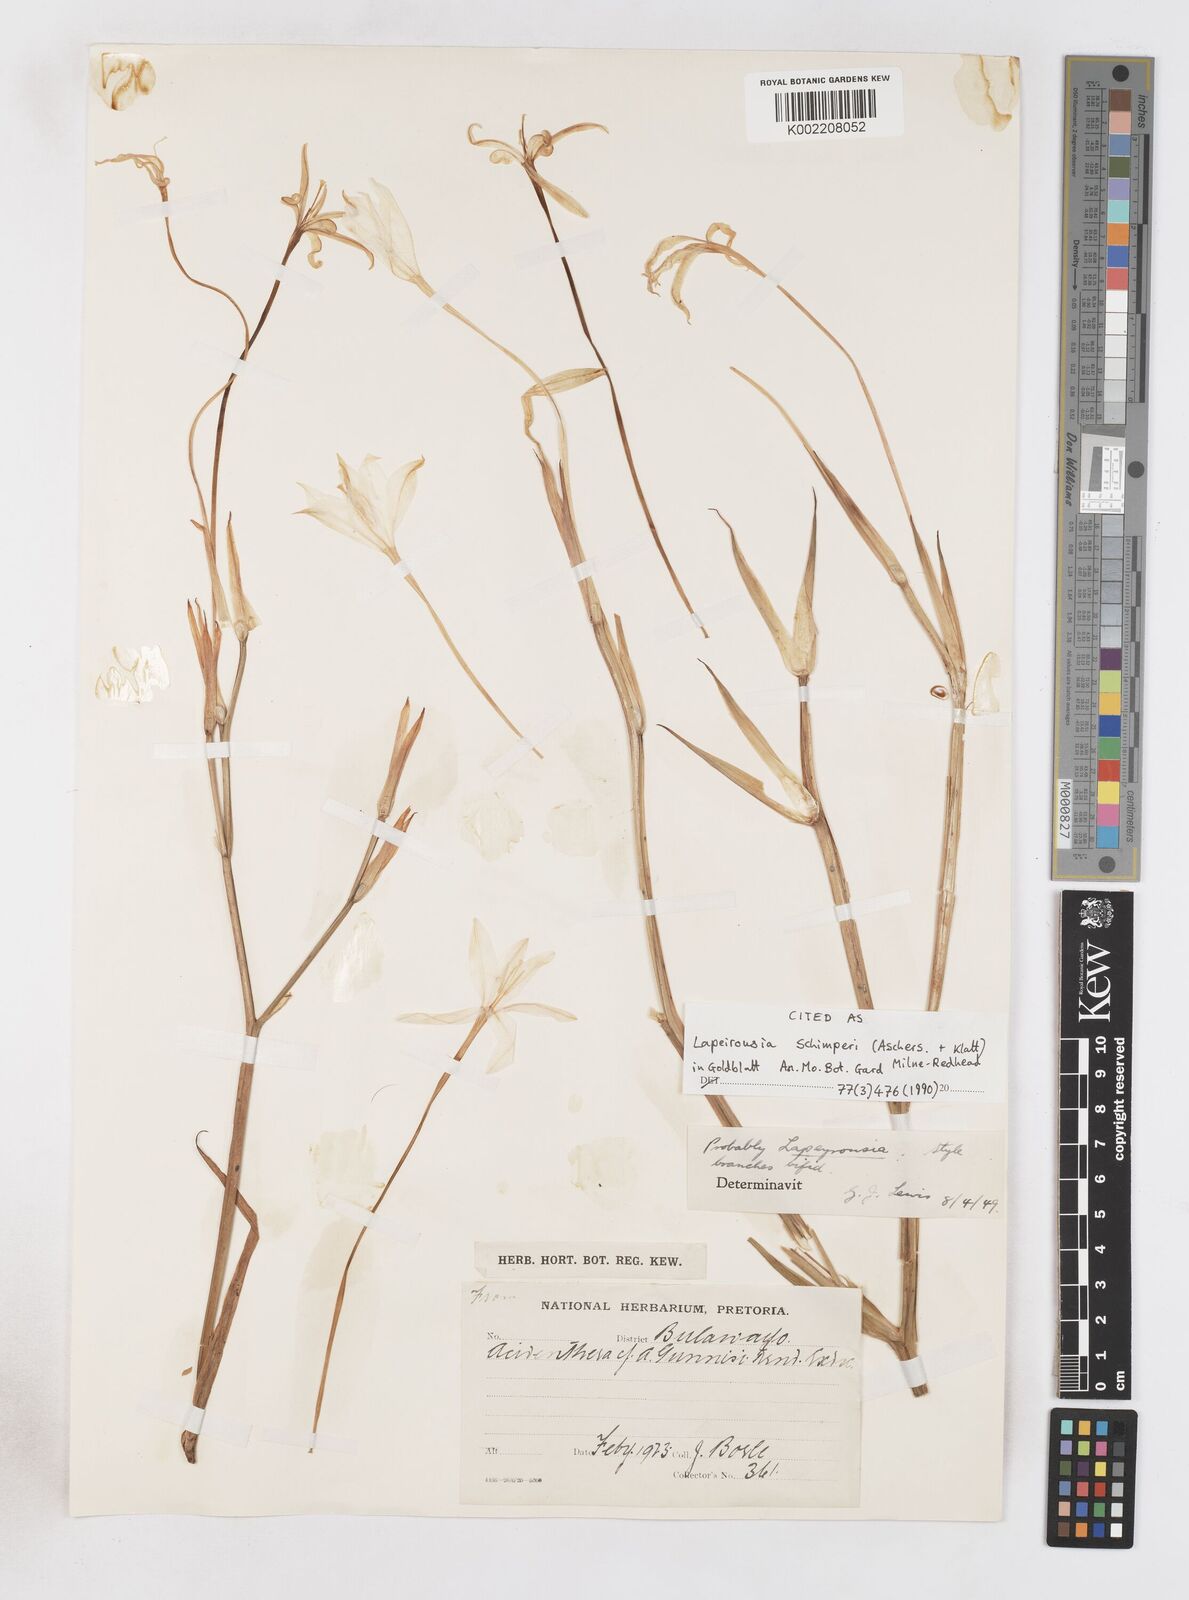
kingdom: Plantae
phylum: Tracheophyta
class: Liliopsida
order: Asparagales
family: Iridaceae
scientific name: Iridaceae
